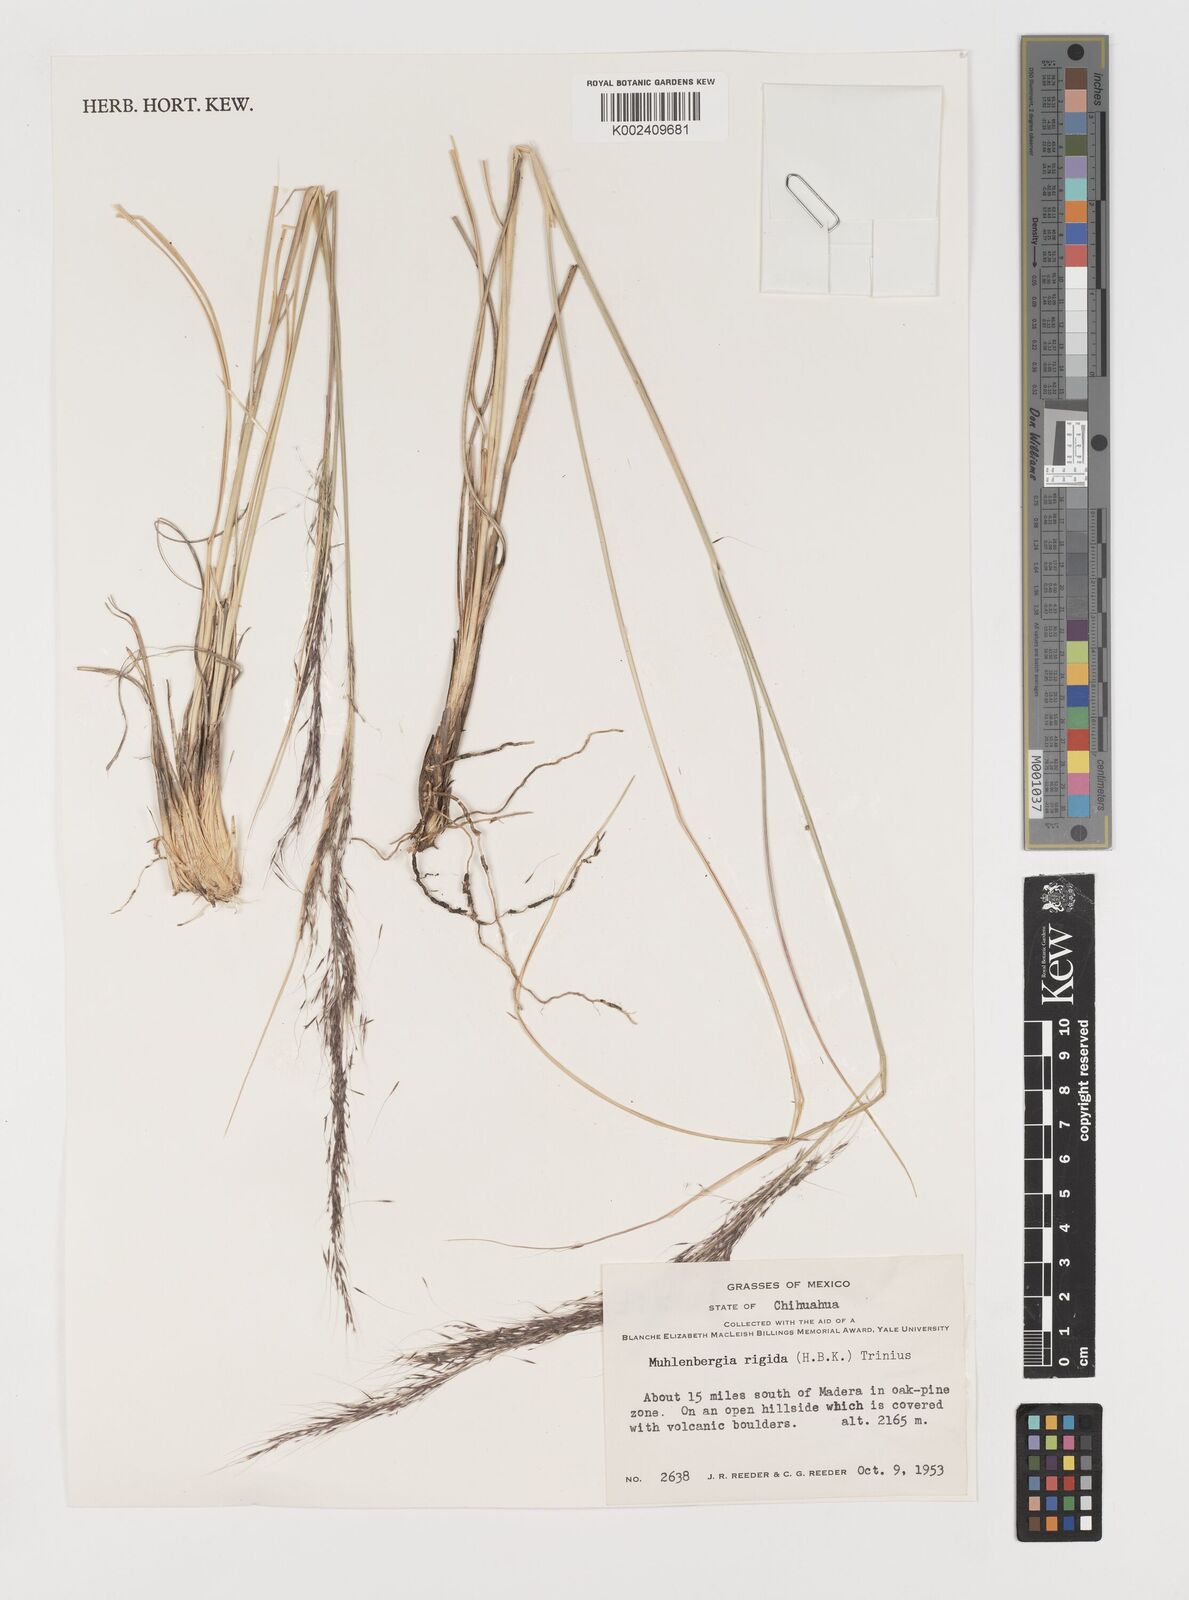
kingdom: Plantae
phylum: Tracheophyta
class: Liliopsida
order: Poales
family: Poaceae
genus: Muhlenbergia
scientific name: Muhlenbergia rigida
